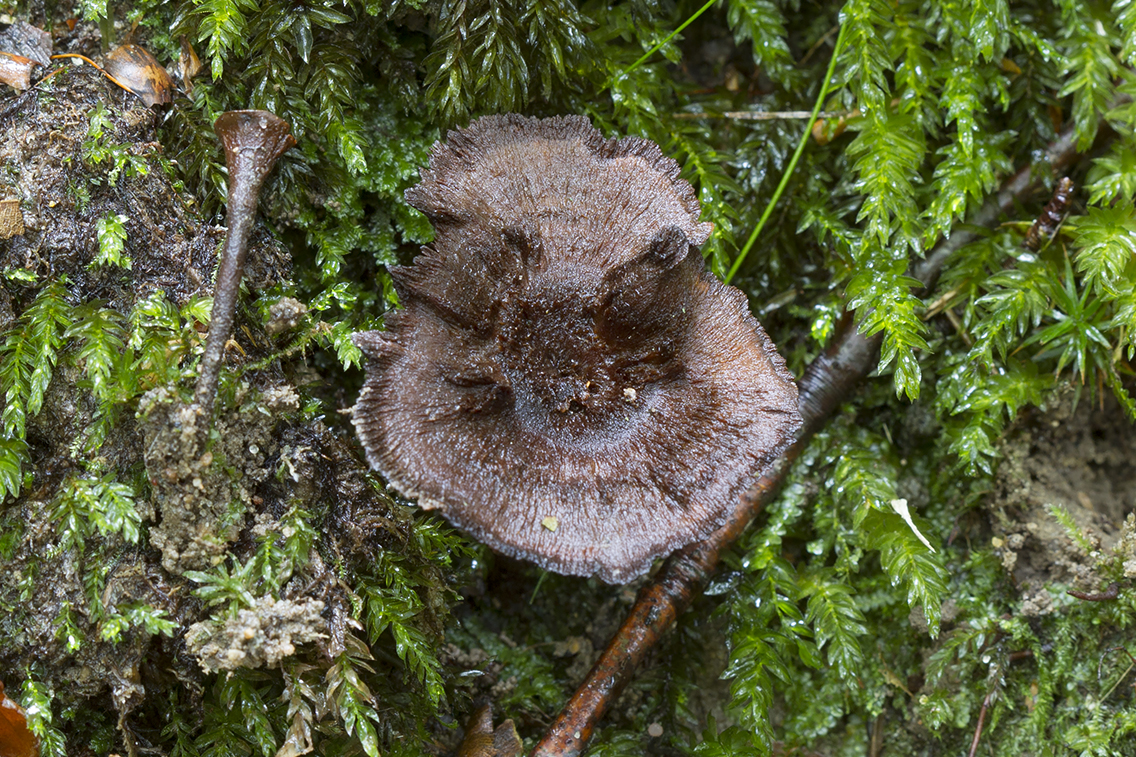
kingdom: Fungi
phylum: Basidiomycota
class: Agaricomycetes
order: Hymenochaetales
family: Hymenochaetaceae
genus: Coltricia
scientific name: Coltricia
